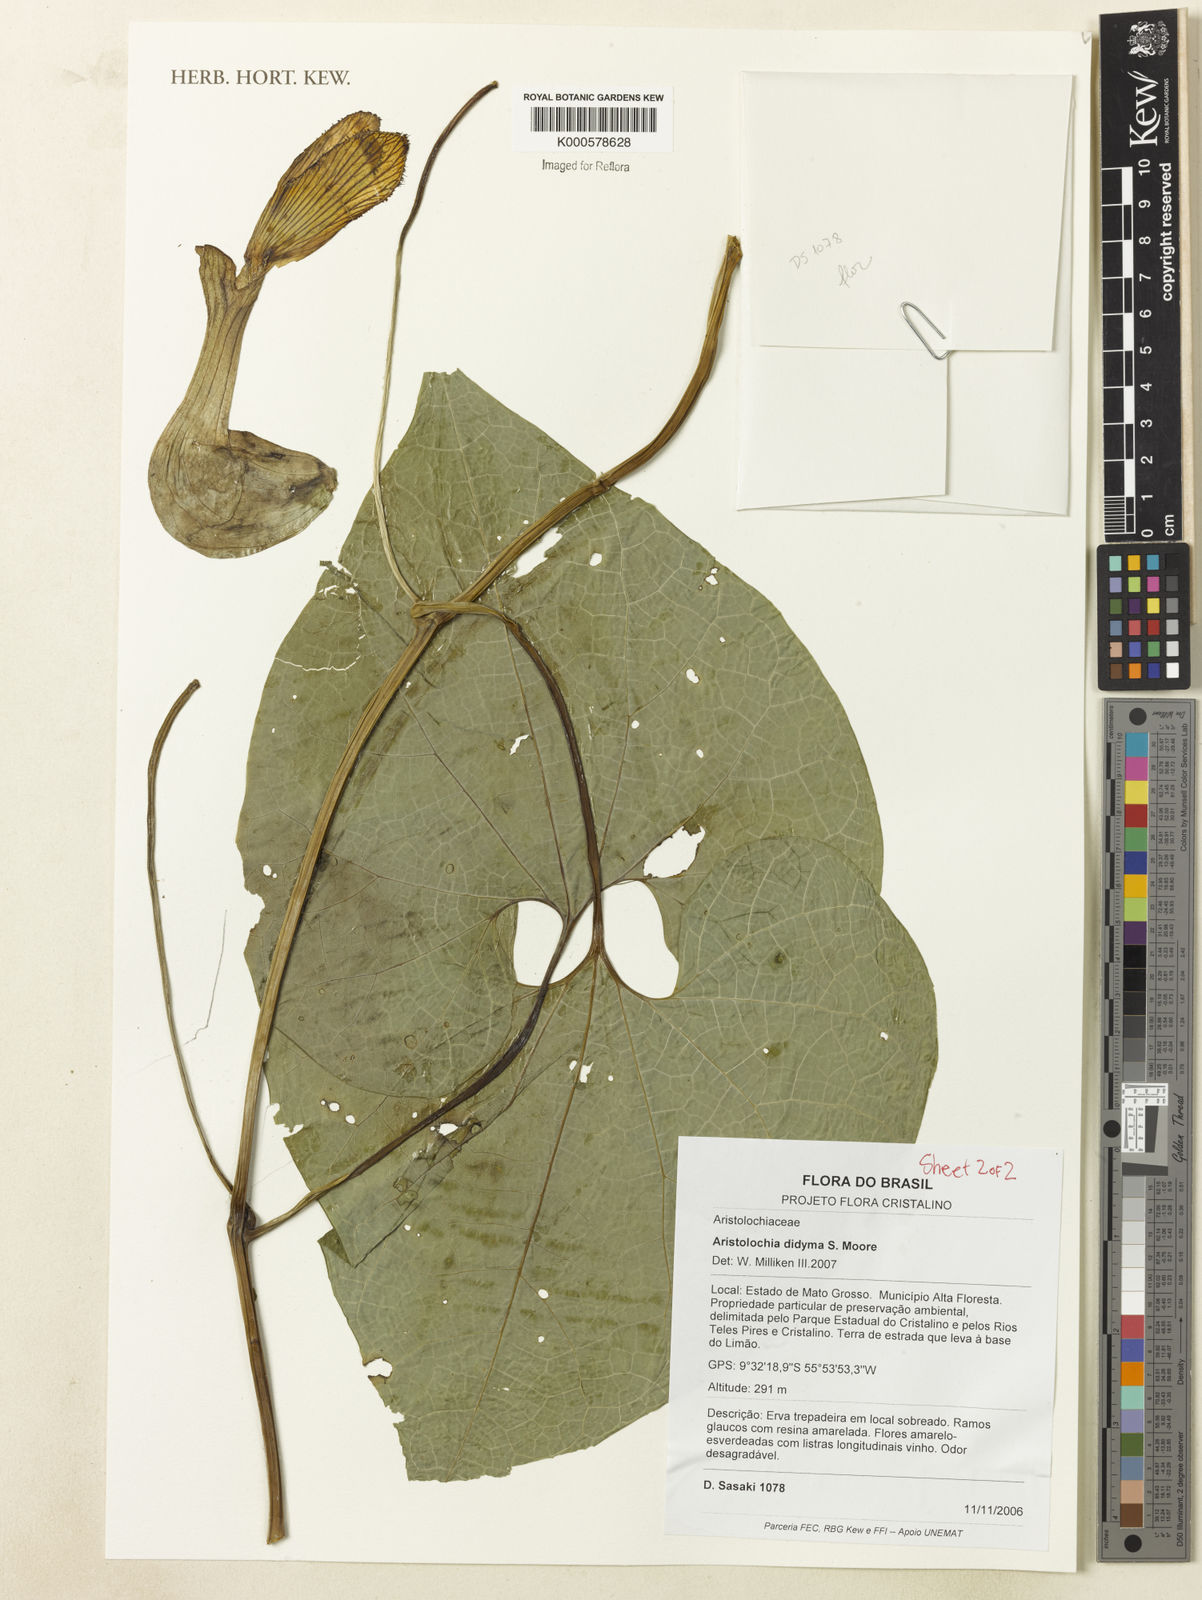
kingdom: Plantae
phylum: Tracheophyta
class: Magnoliopsida
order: Piperales
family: Aristolochiaceae
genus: Aristolochia
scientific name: Aristolochia
